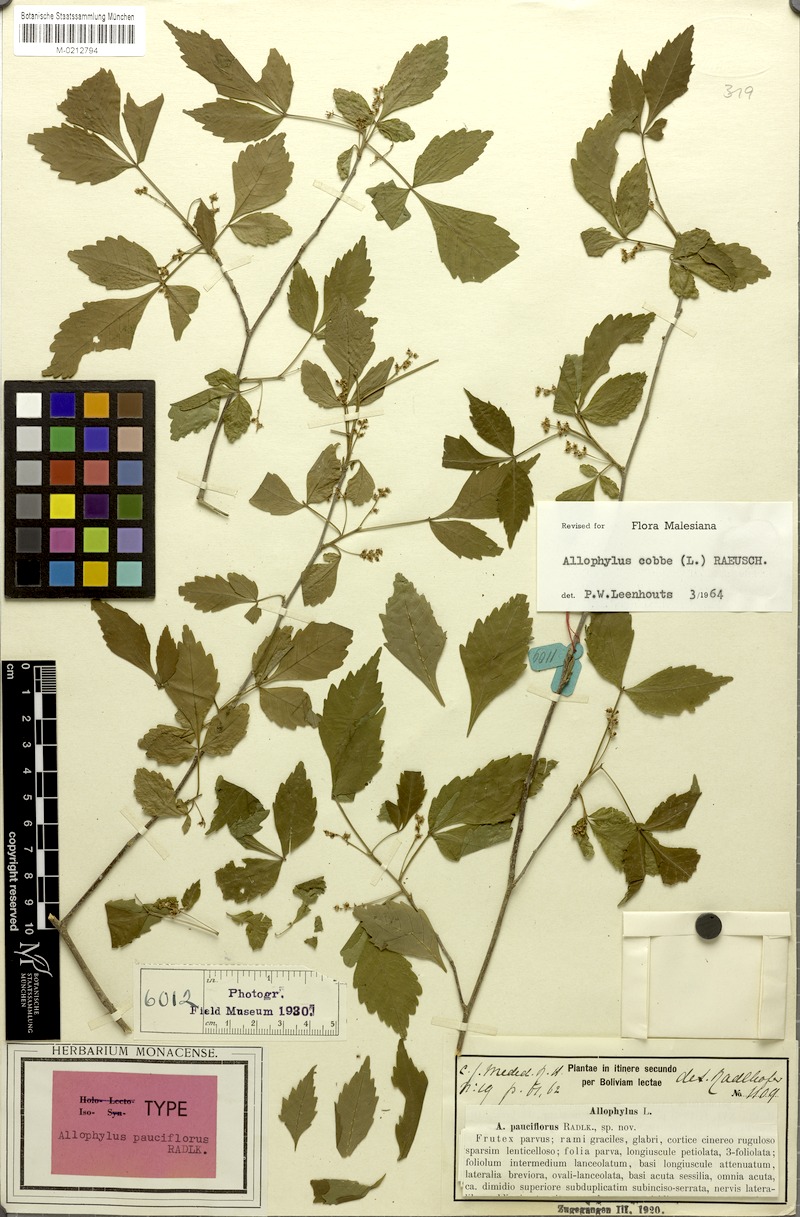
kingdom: Plantae
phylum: Tracheophyta
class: Magnoliopsida
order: Sapindales
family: Sapindaceae
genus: Allophylus
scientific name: Allophylus cobbe
